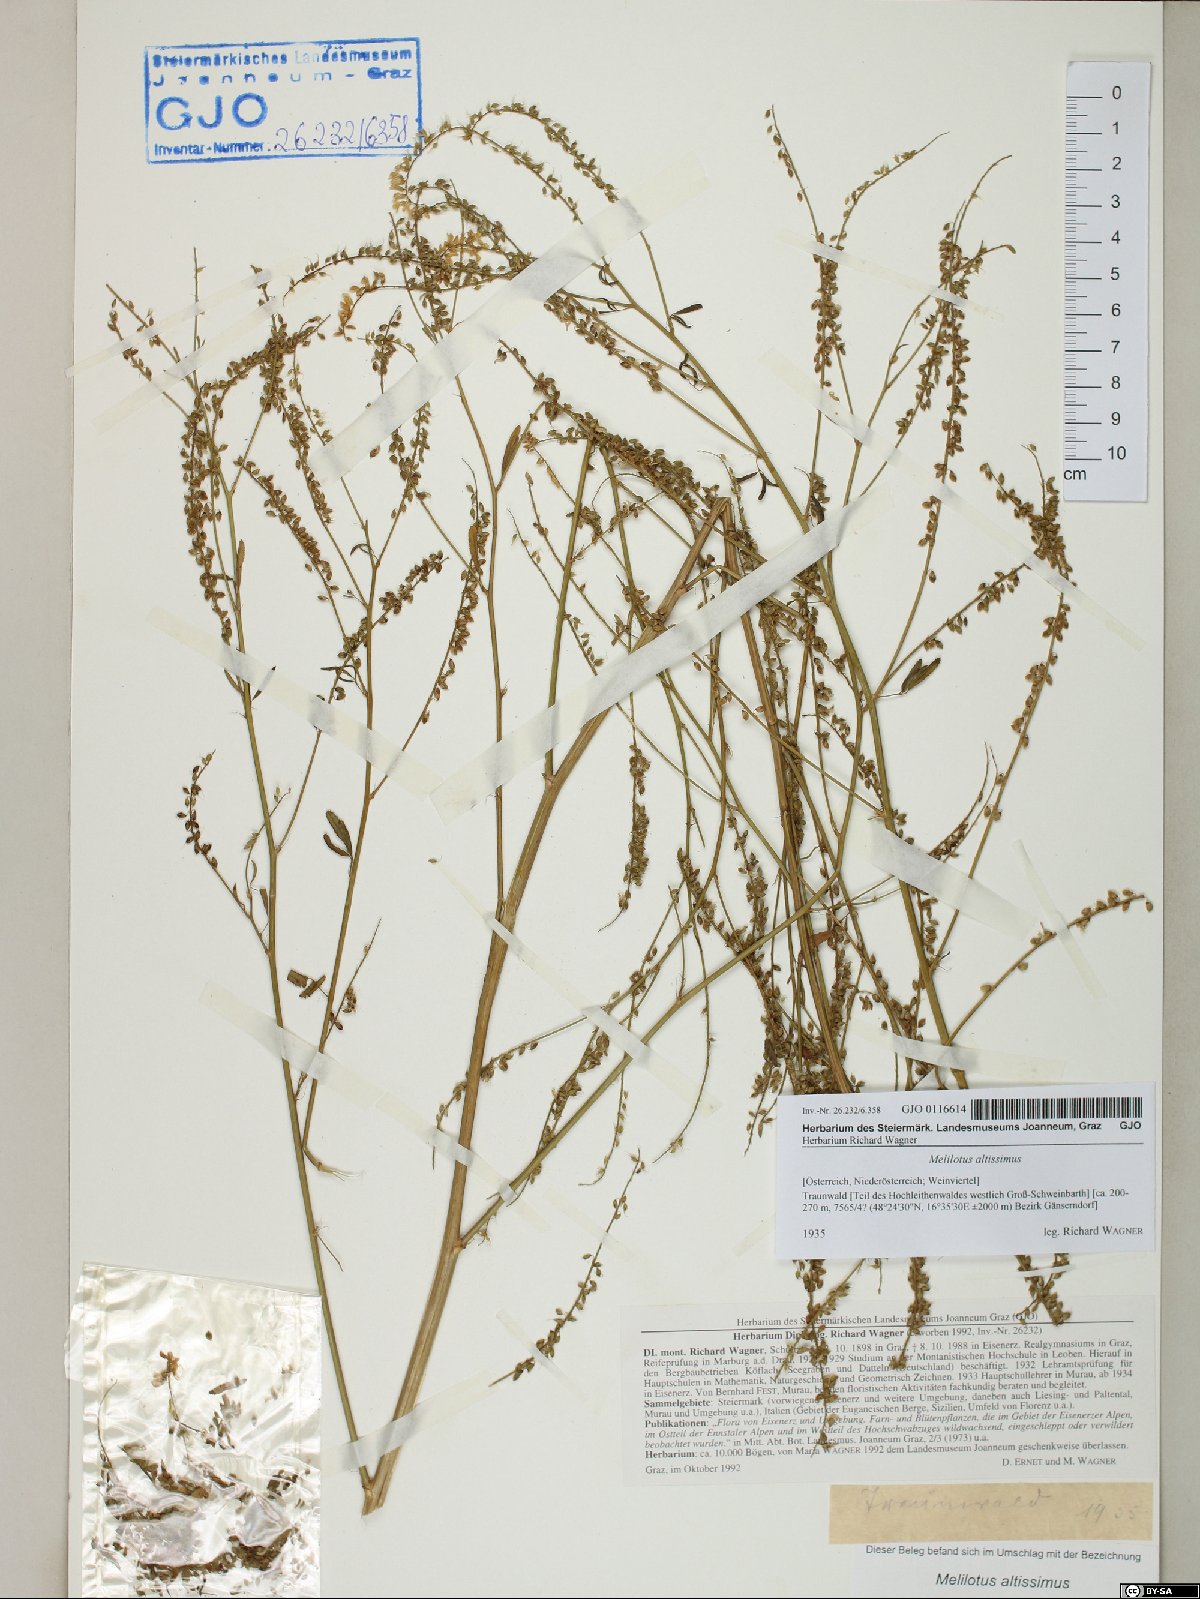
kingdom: Plantae
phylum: Tracheophyta
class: Magnoliopsida
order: Fabales
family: Fabaceae
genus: Melilotus
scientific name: Melilotus altissimus
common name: Tall melilot
